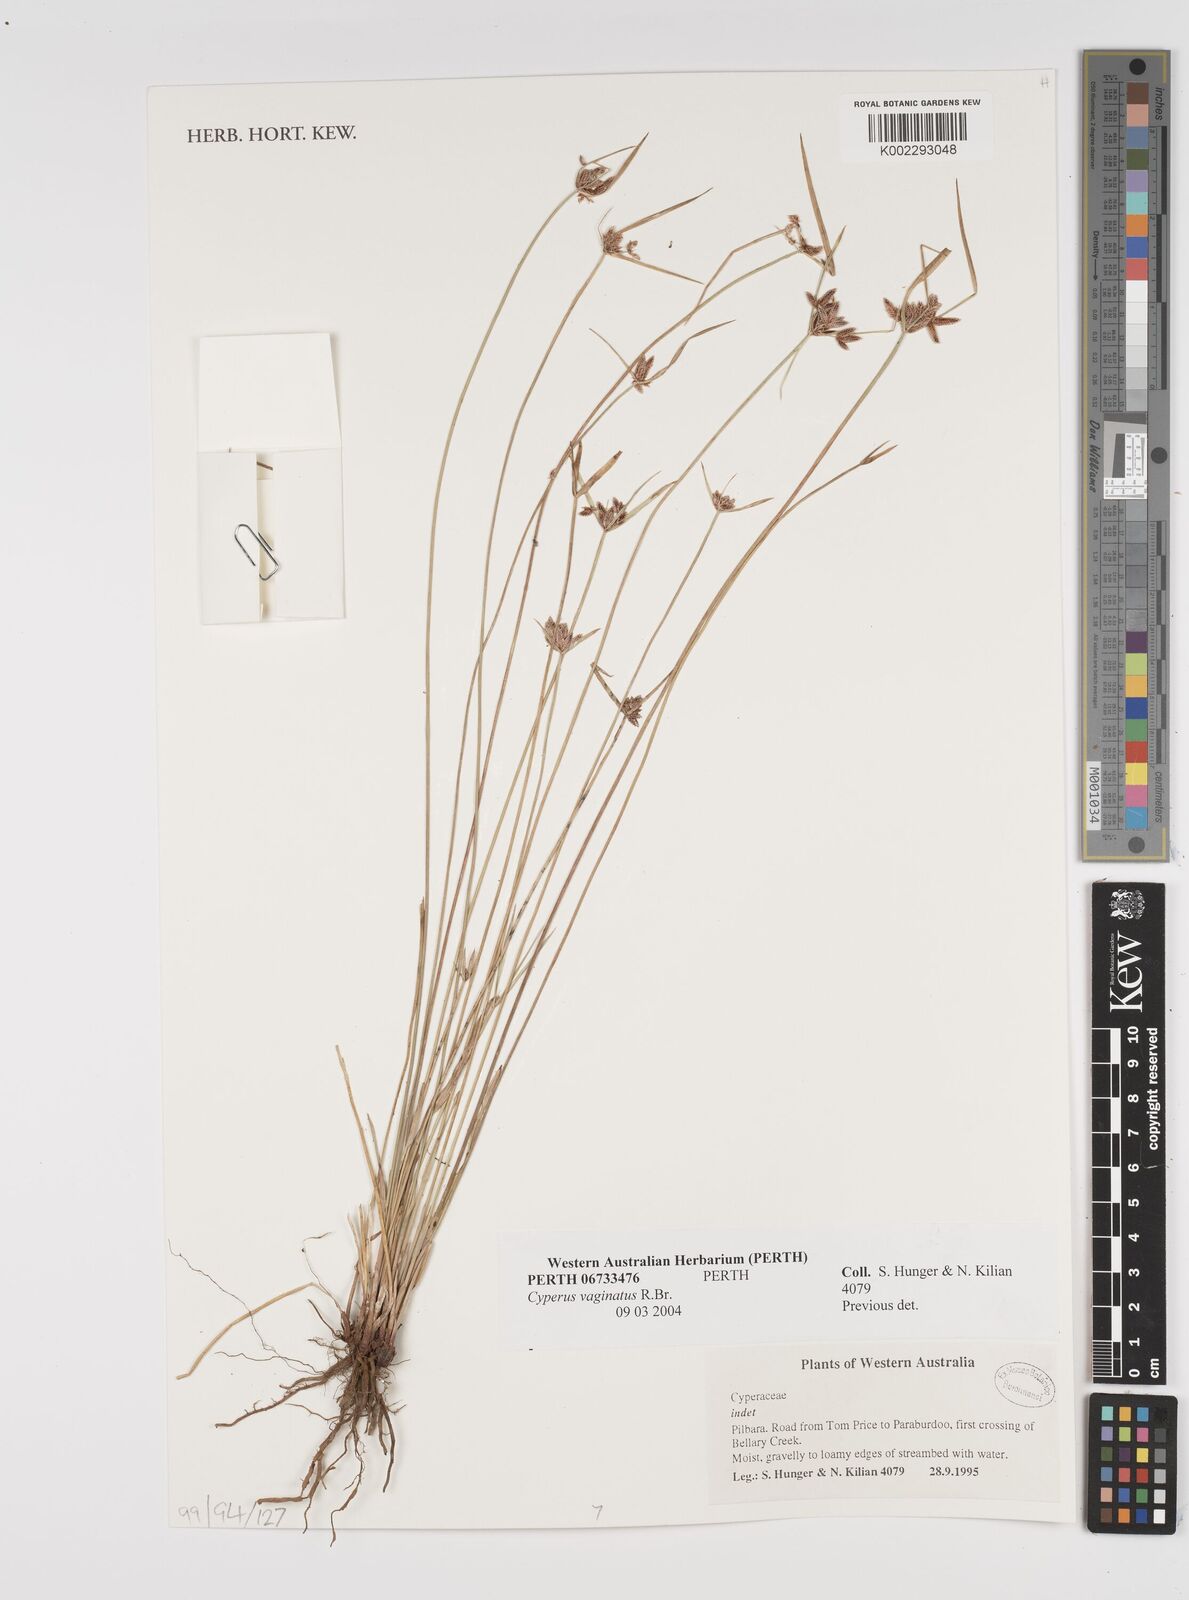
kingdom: Plantae
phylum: Tracheophyta
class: Liliopsida
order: Poales
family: Cyperaceae
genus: Cyperus
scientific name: Cyperus vaginatus
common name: Stiff-leaved flat-sedge
